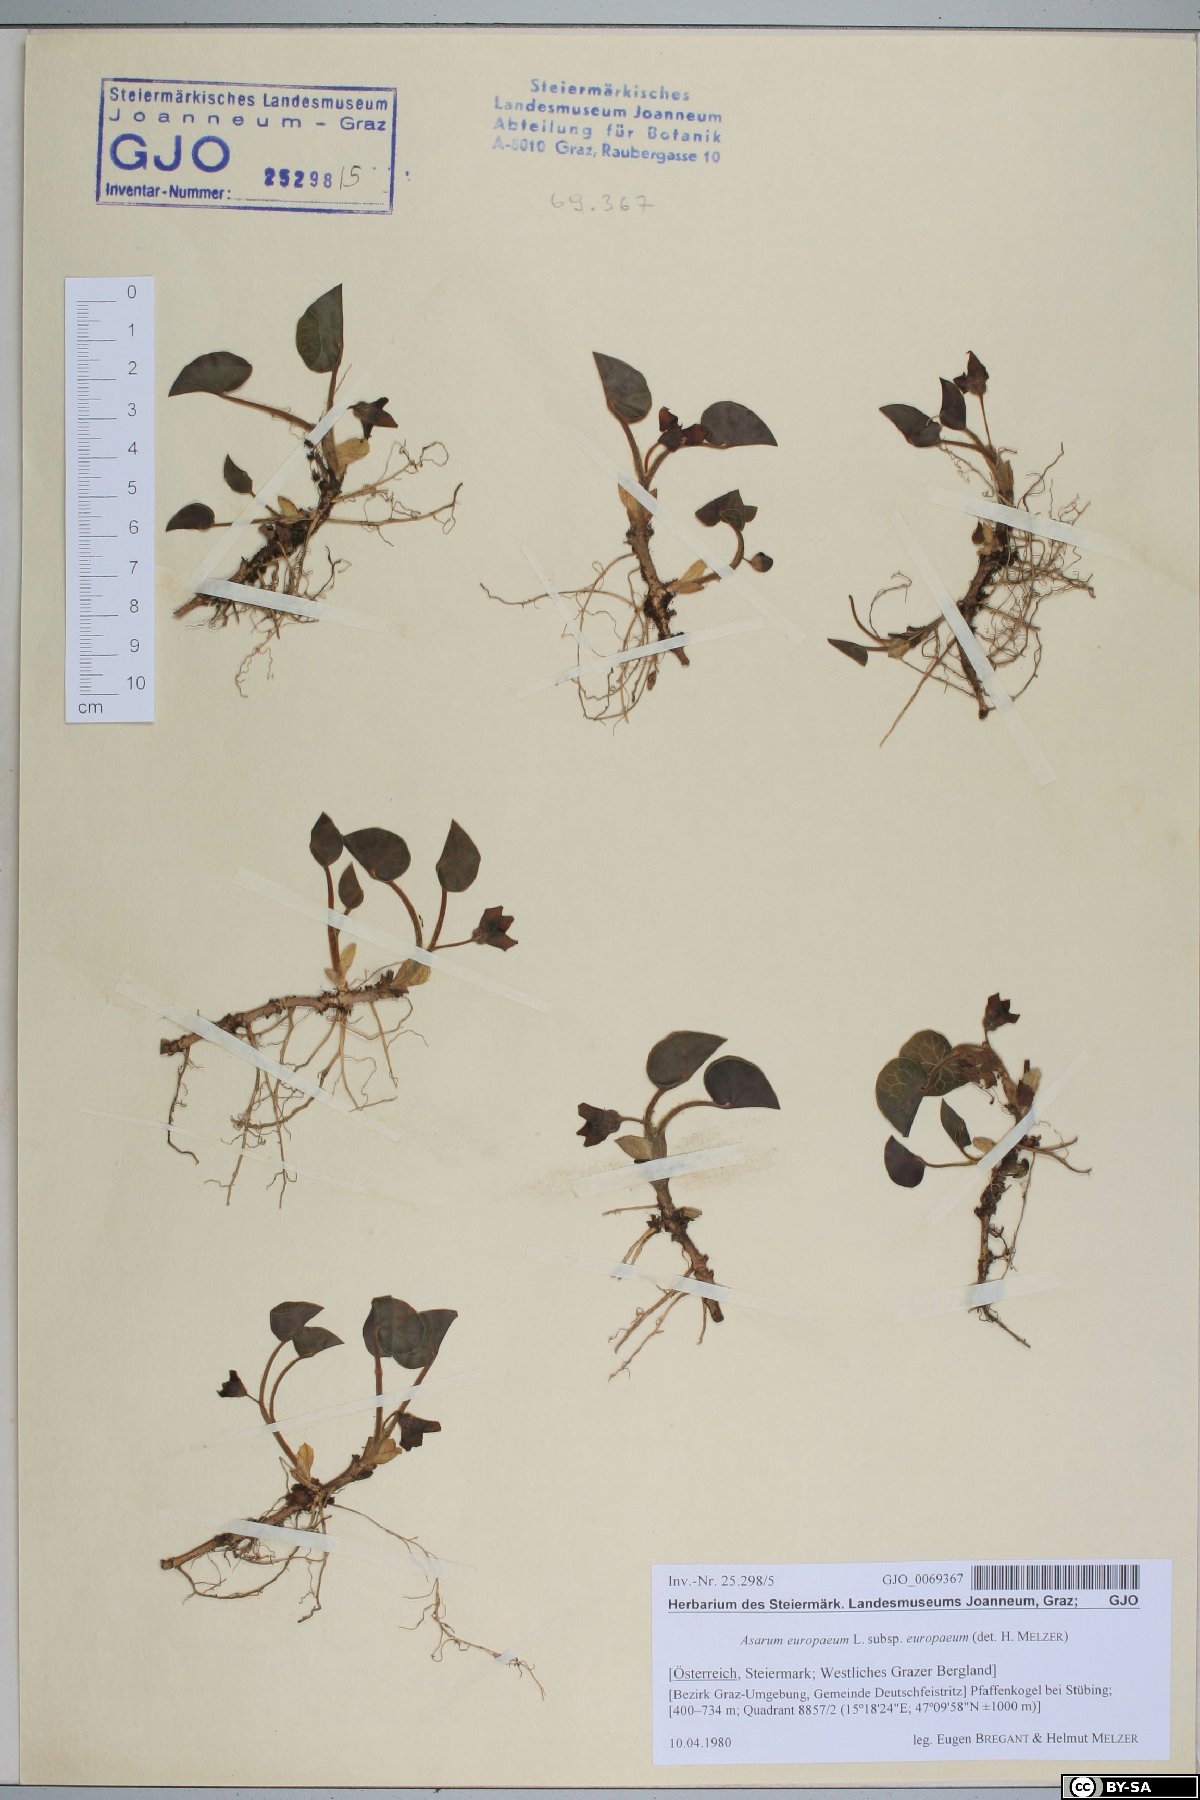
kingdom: Plantae
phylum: Tracheophyta
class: Magnoliopsida
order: Piperales
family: Aristolochiaceae
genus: Asarum
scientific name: Asarum europaeum
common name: Asarabacca
